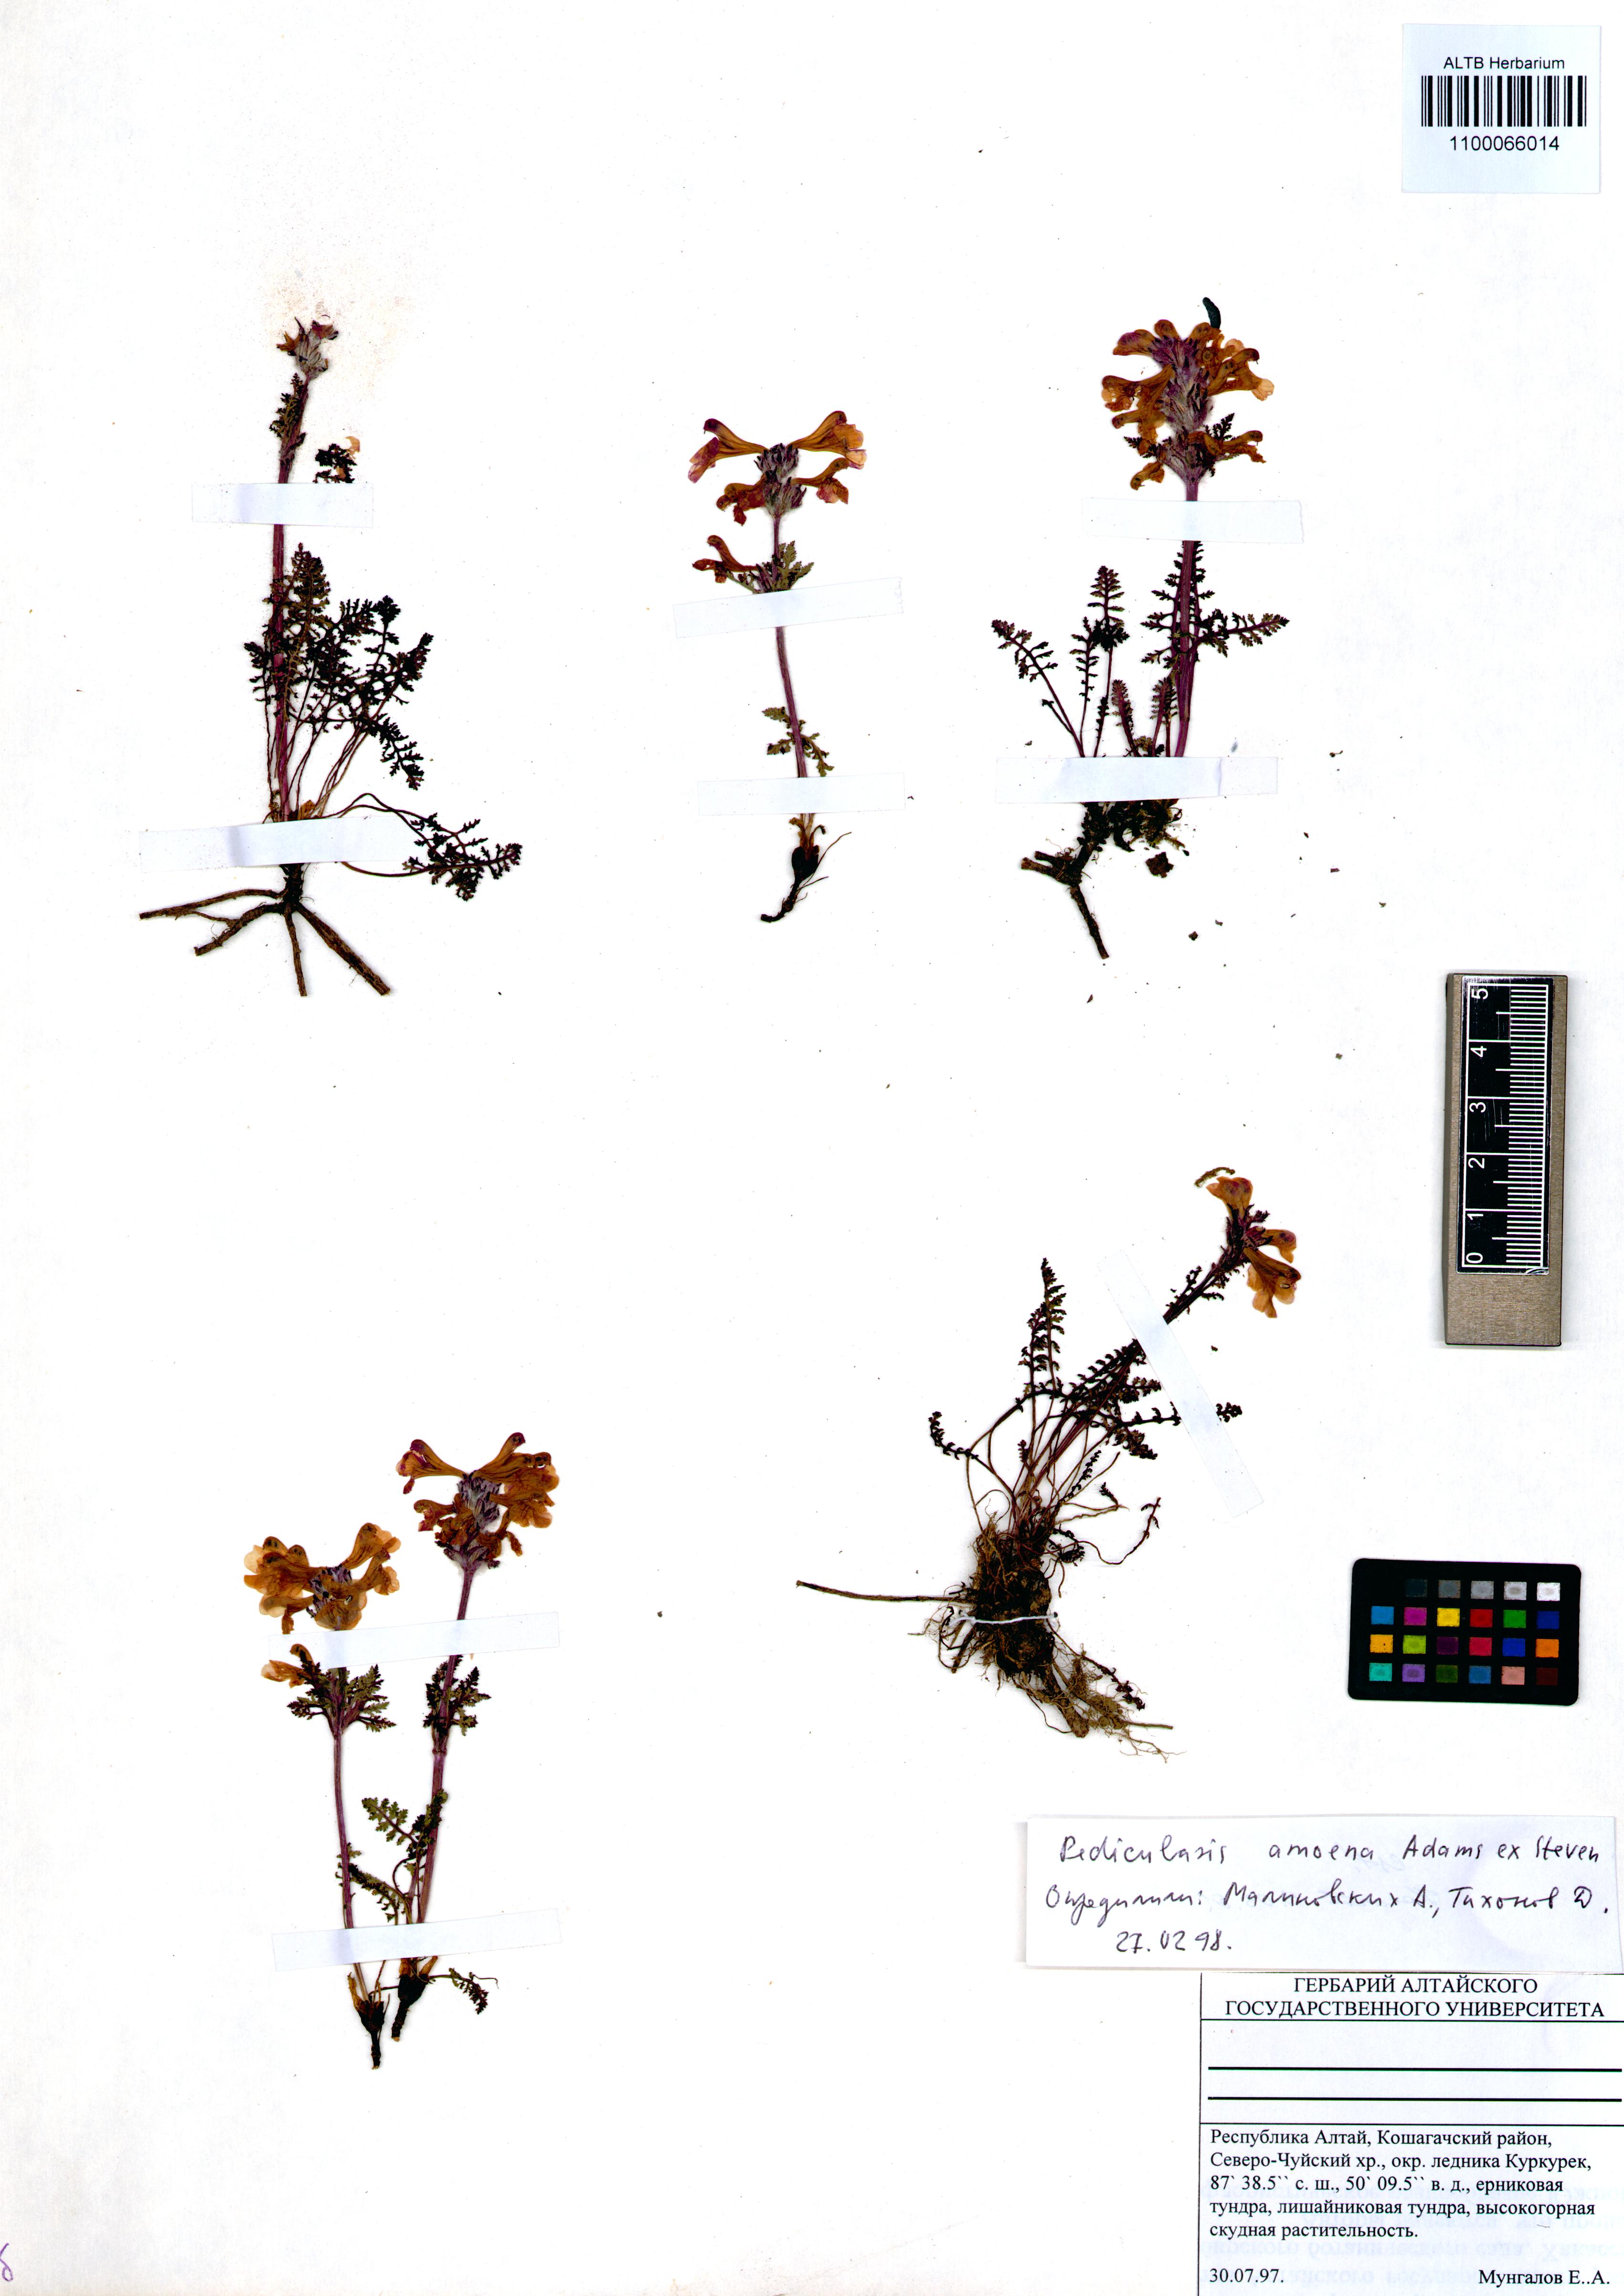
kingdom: Plantae
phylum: Tracheophyta
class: Magnoliopsida
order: Lamiales
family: Orobanchaceae
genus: Pedicularis
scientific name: Pedicularis amoena
